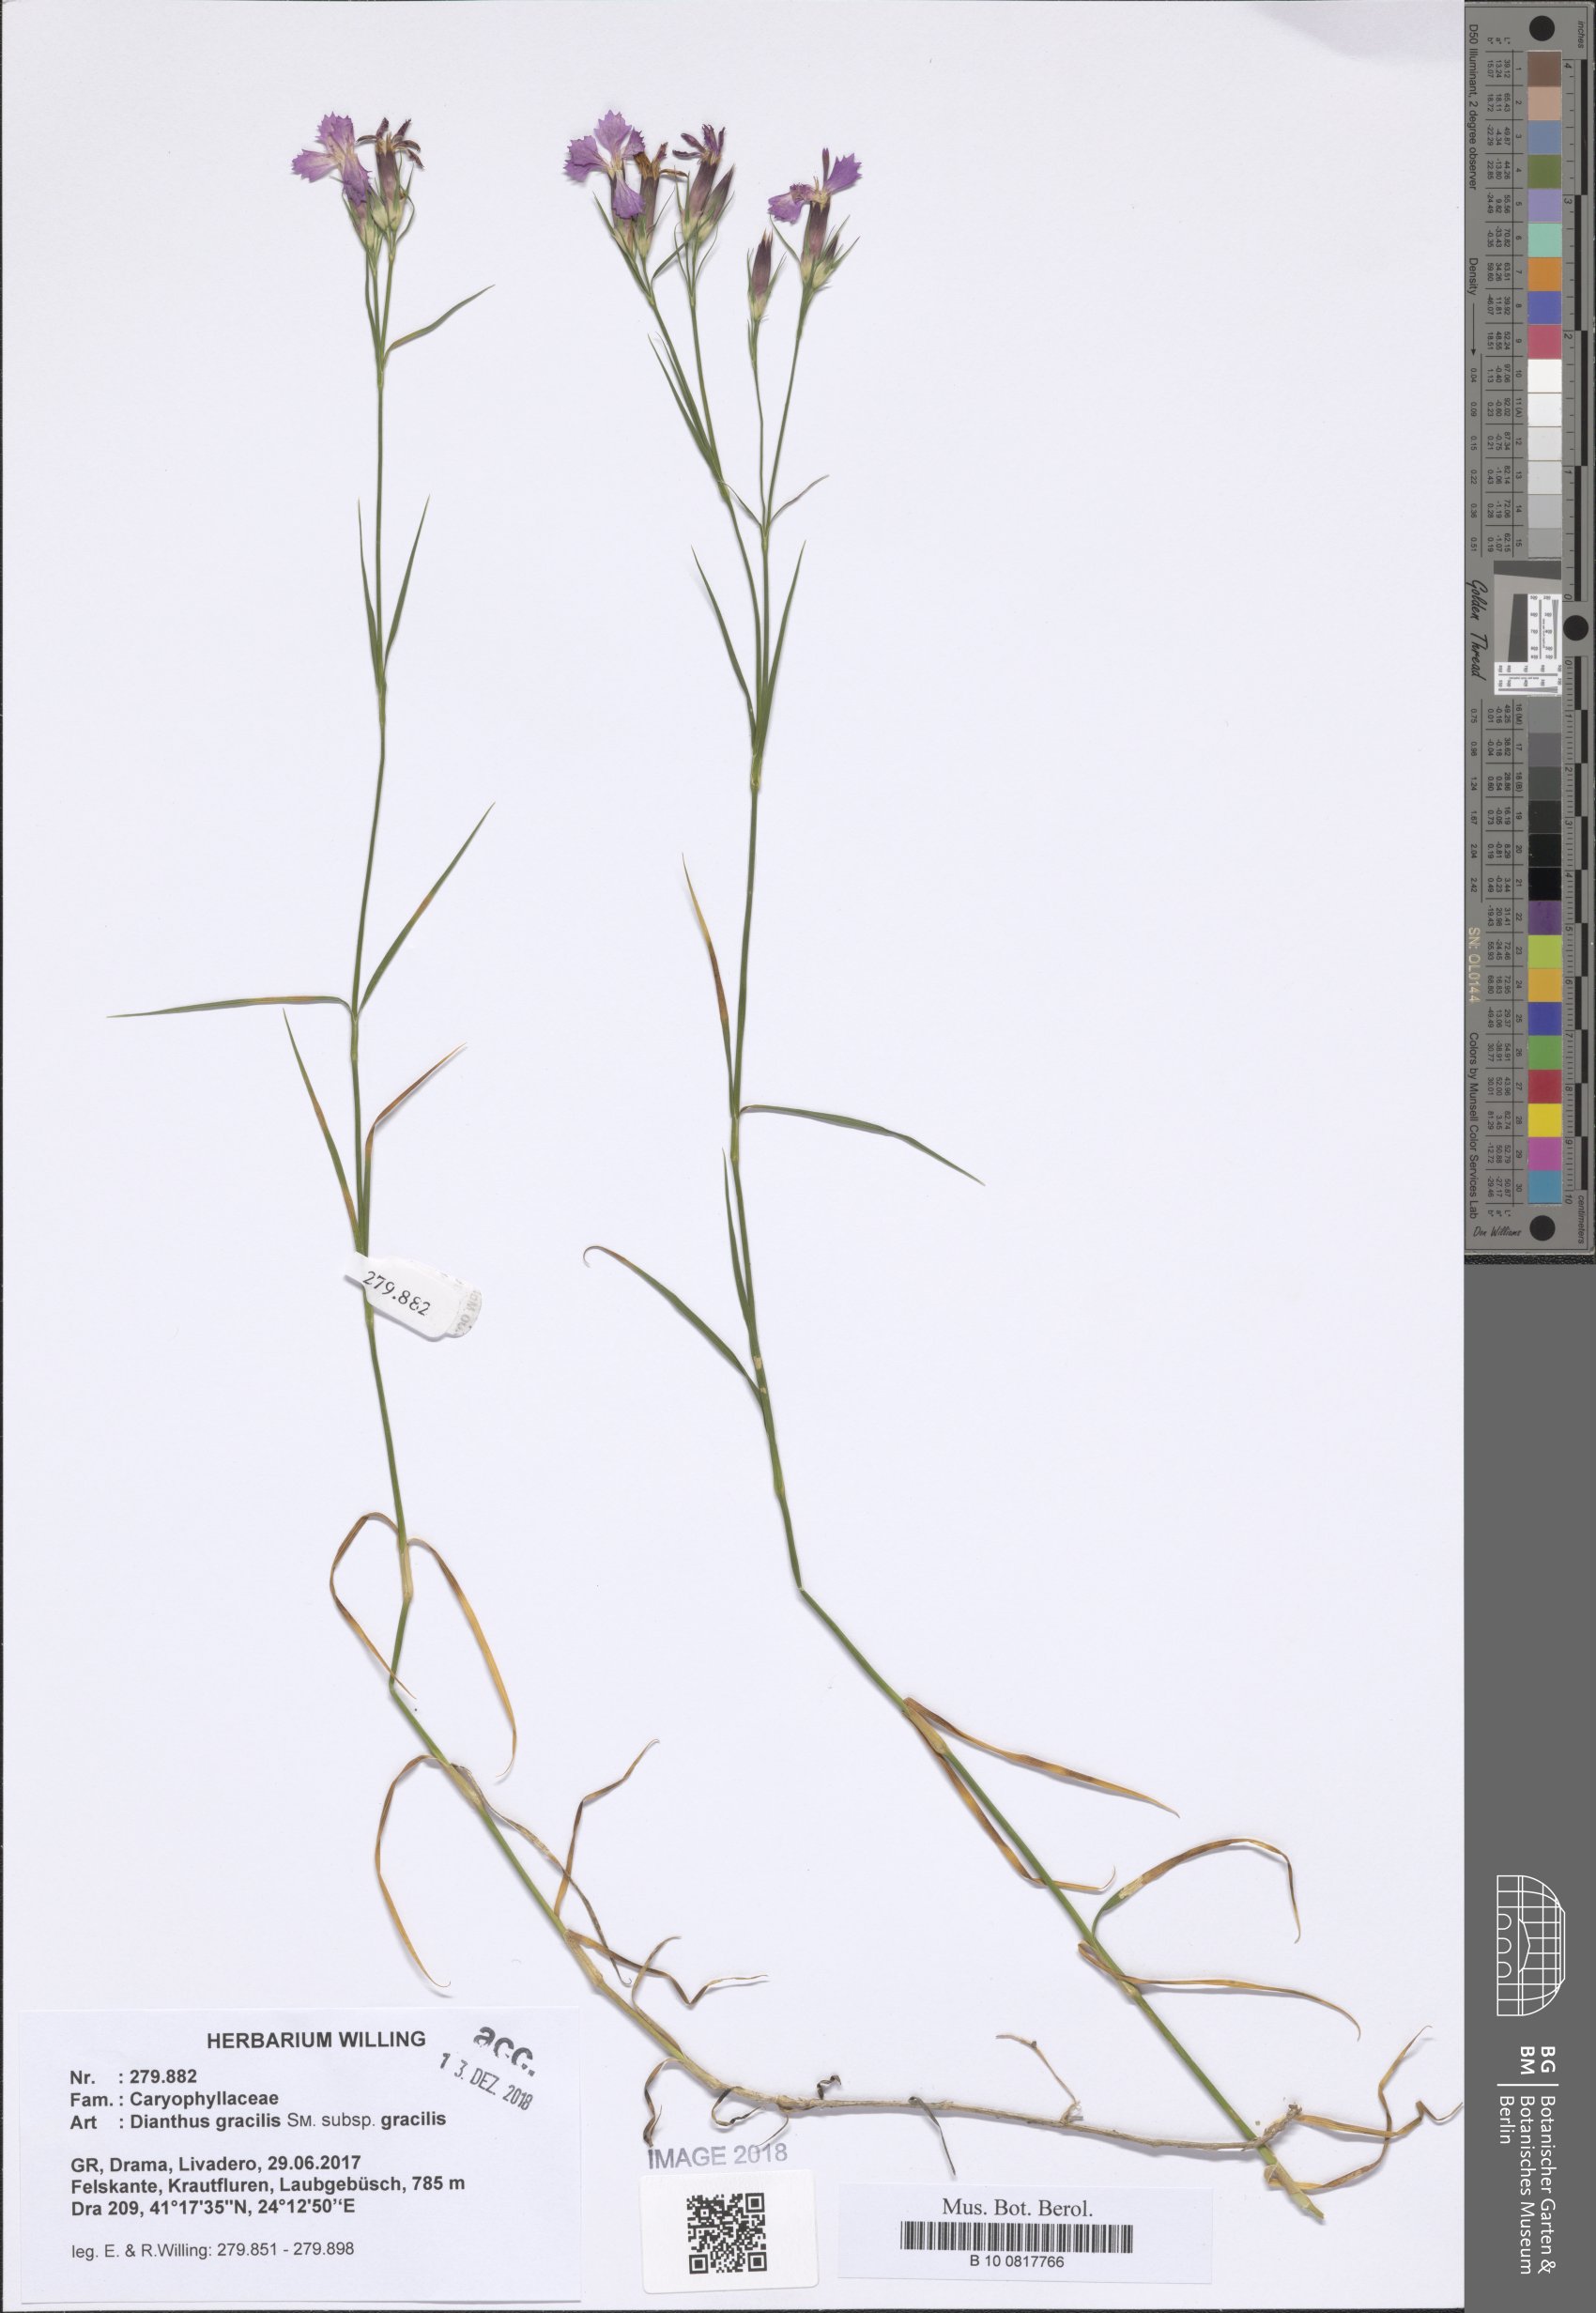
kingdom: Plantae
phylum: Tracheophyta
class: Magnoliopsida
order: Caryophyllales
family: Caryophyllaceae
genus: Dianthus
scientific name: Dianthus gracilis
